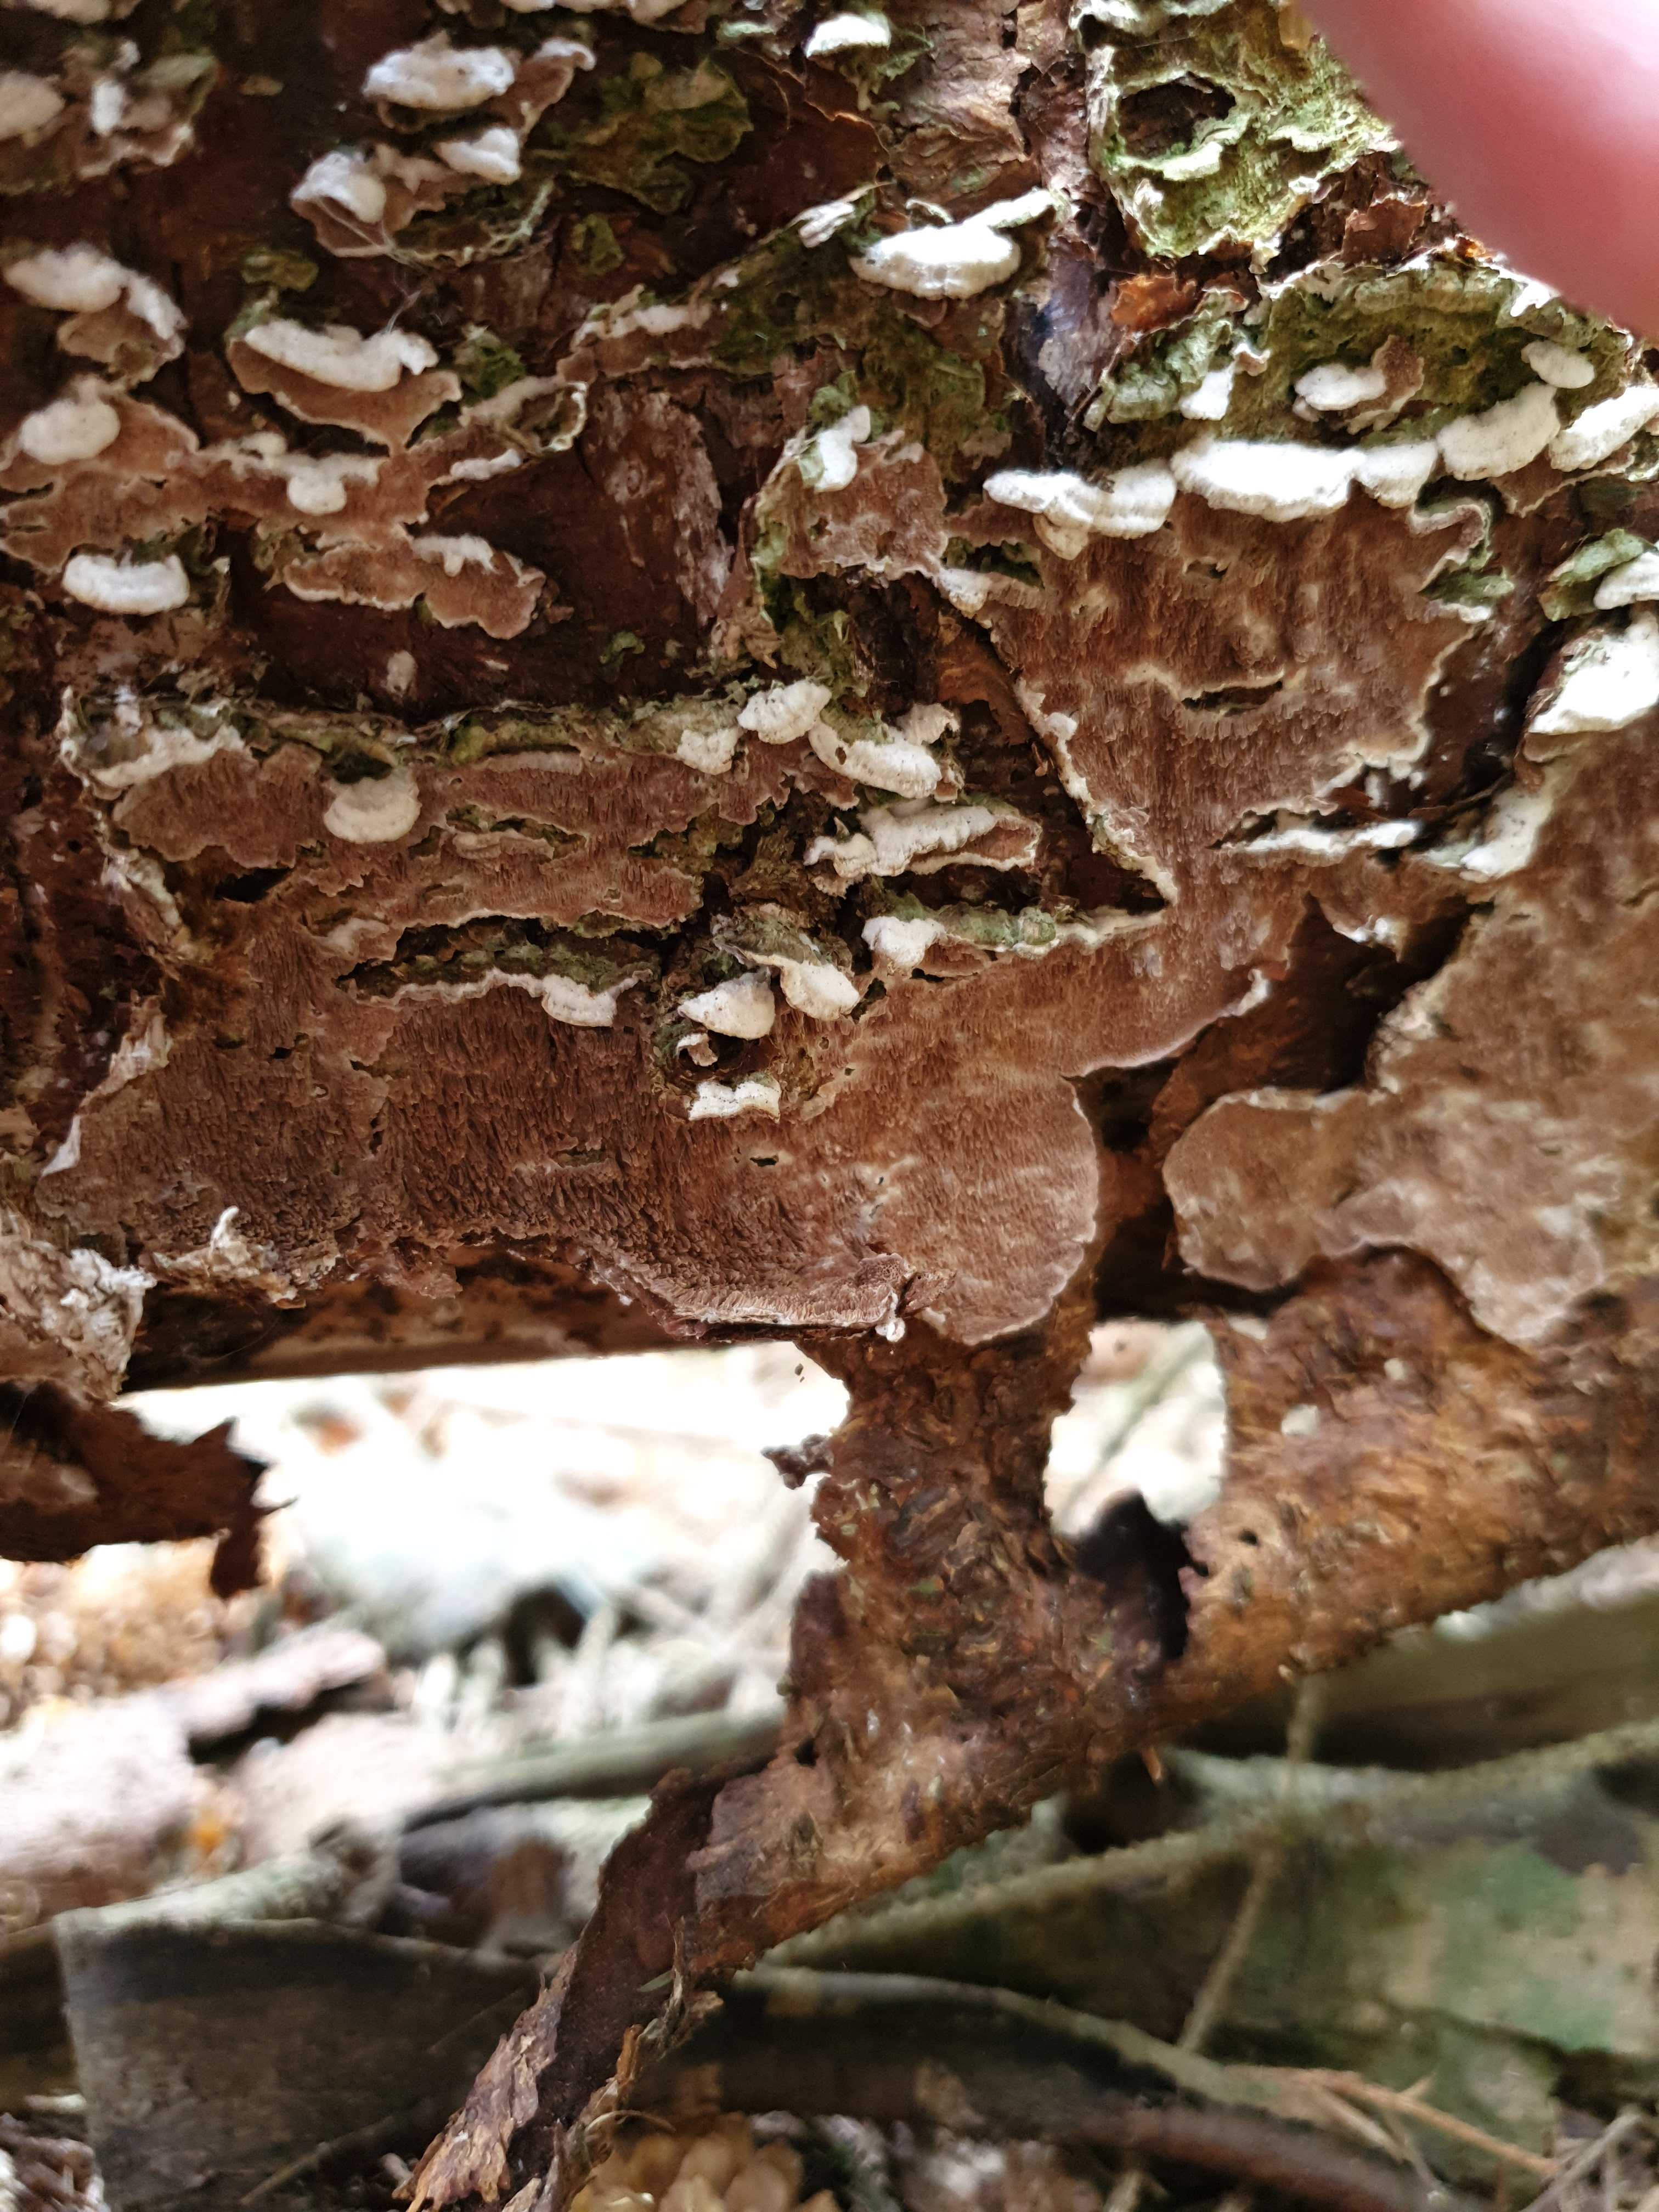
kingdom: Fungi
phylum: Basidiomycota
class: Agaricomycetes
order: Hymenochaetales
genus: Trichaptum
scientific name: Trichaptum fuscoviolaceum
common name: tandet violporesvamp
